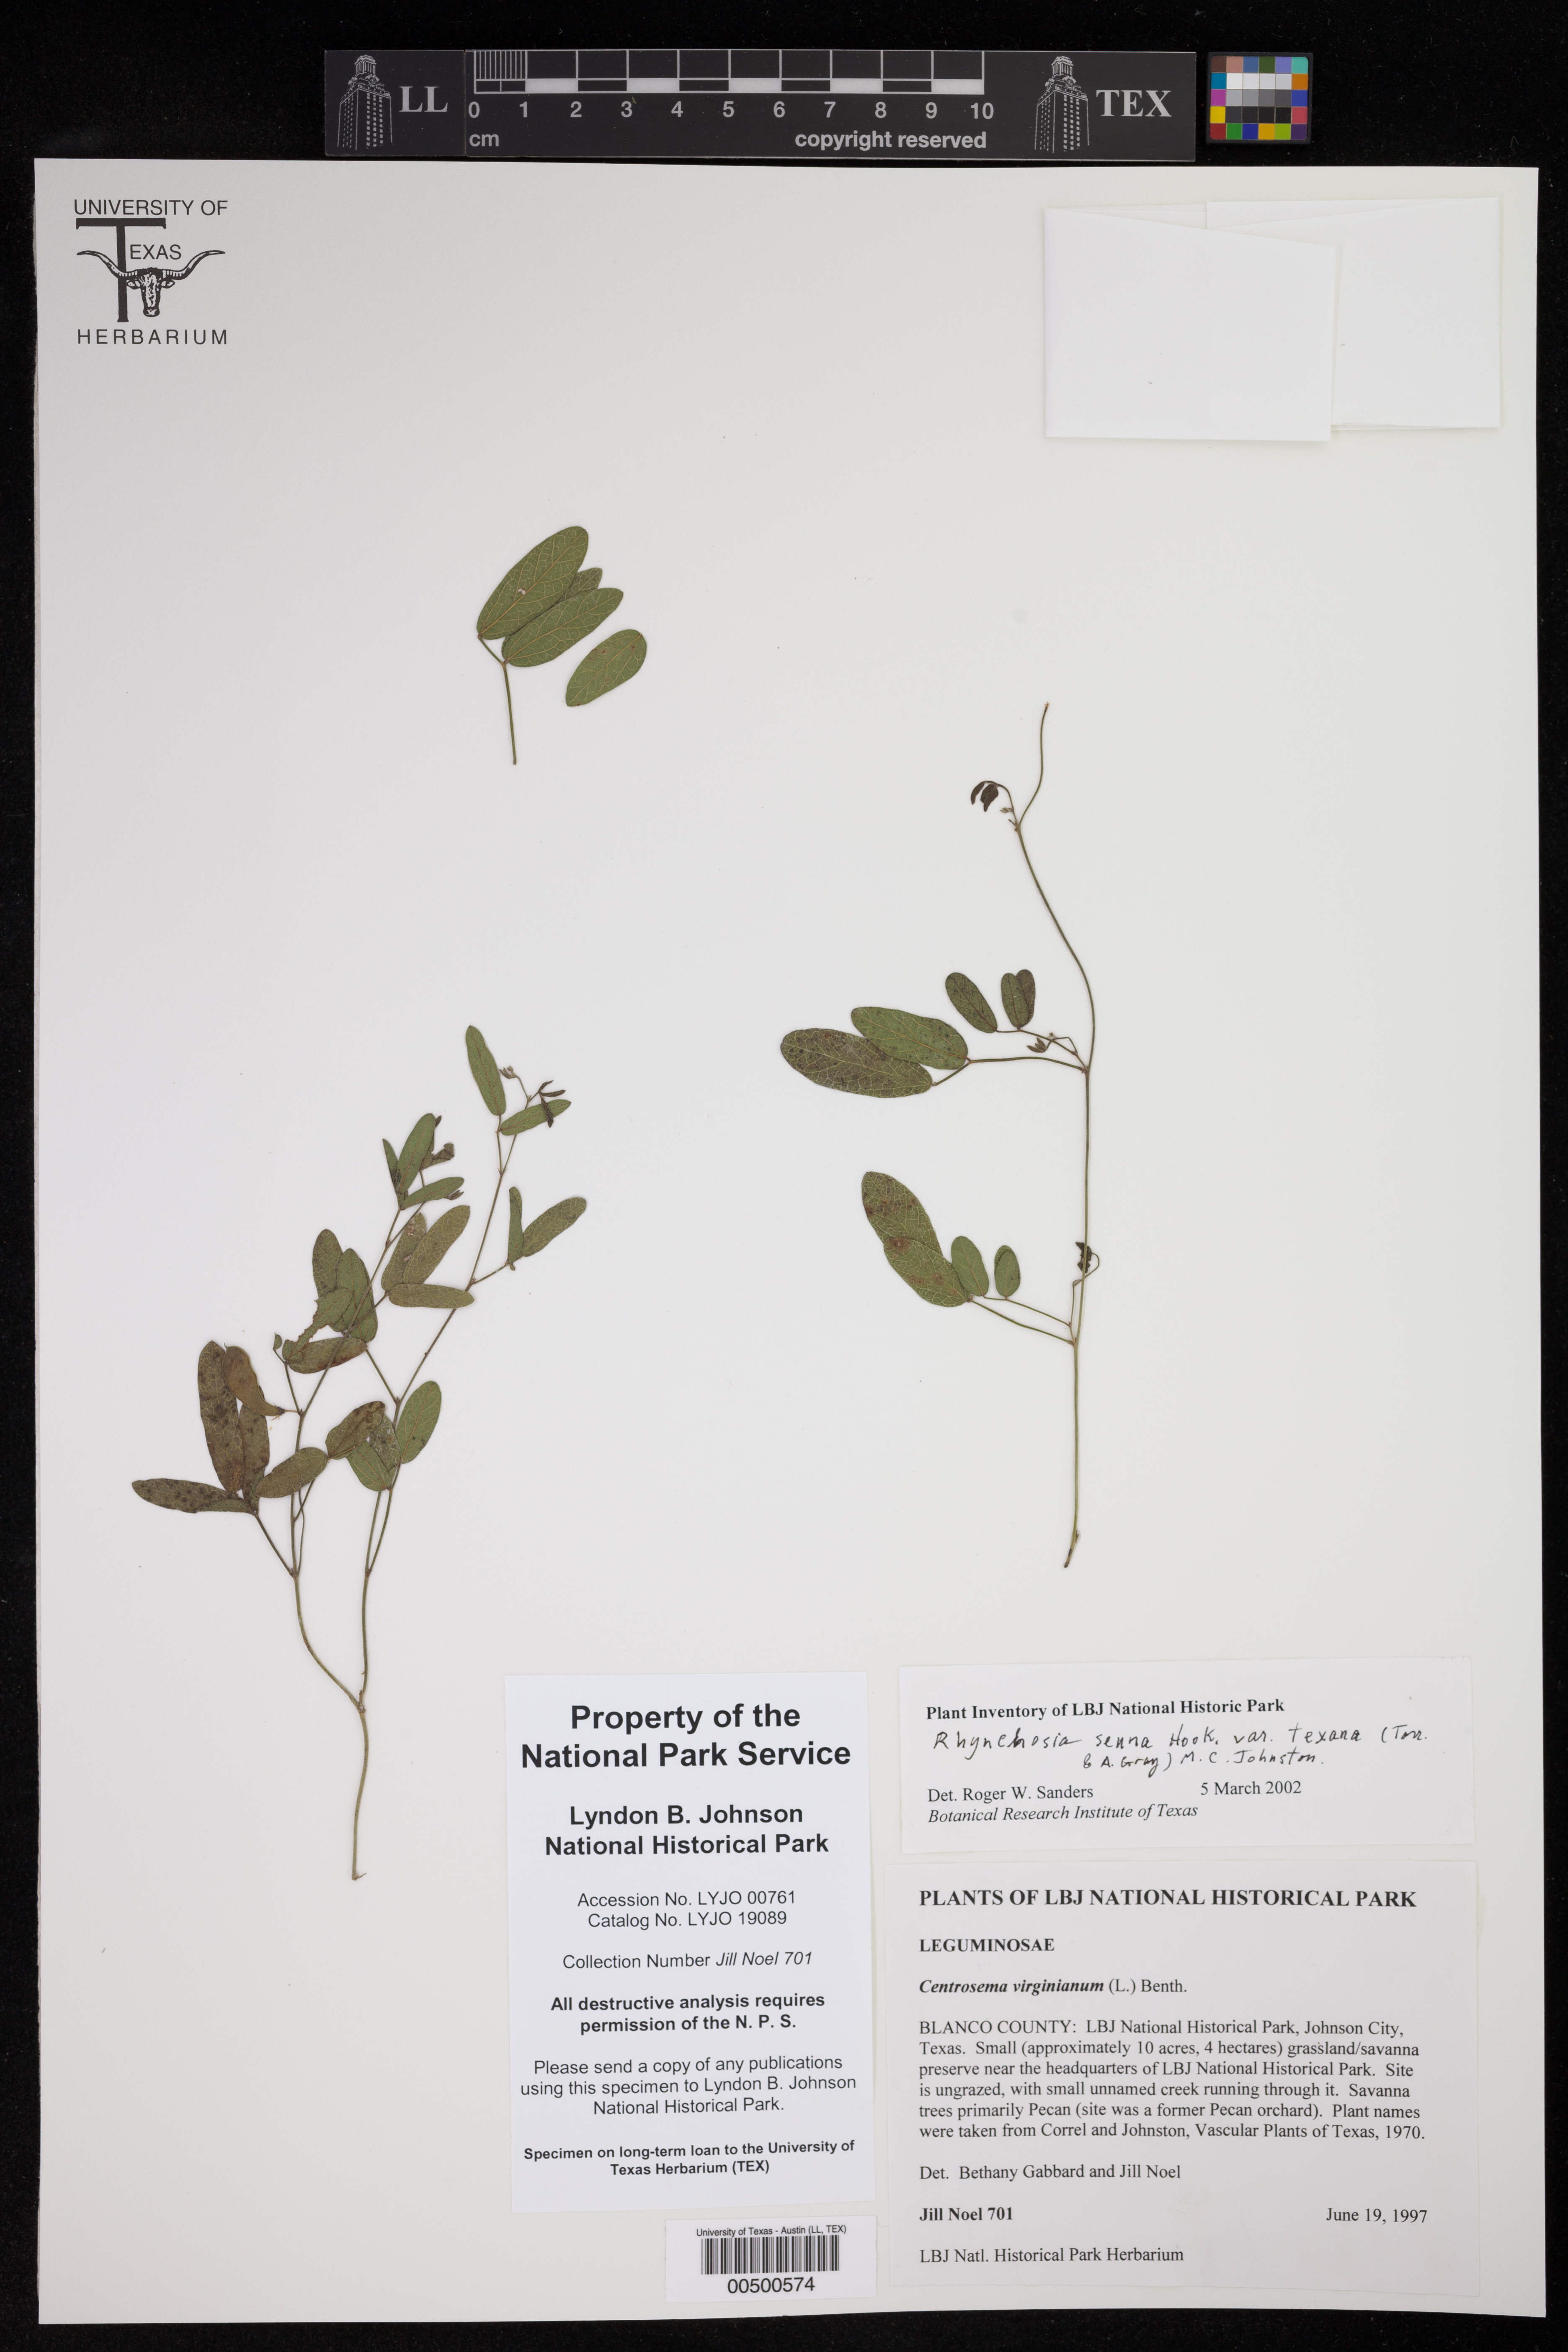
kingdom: Plantae
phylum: Tracheophyta
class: Magnoliopsida
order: Fabales
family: Fabaceae
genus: Rhynchosia
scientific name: Rhynchosia senna
